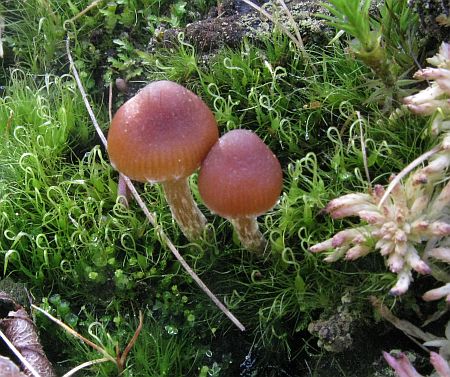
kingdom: Fungi
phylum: Basidiomycota
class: Agaricomycetes
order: Agaricales
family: Strophariaceae
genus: Bogbodia
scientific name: Bogbodia uda
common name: tørve-svovlhat
